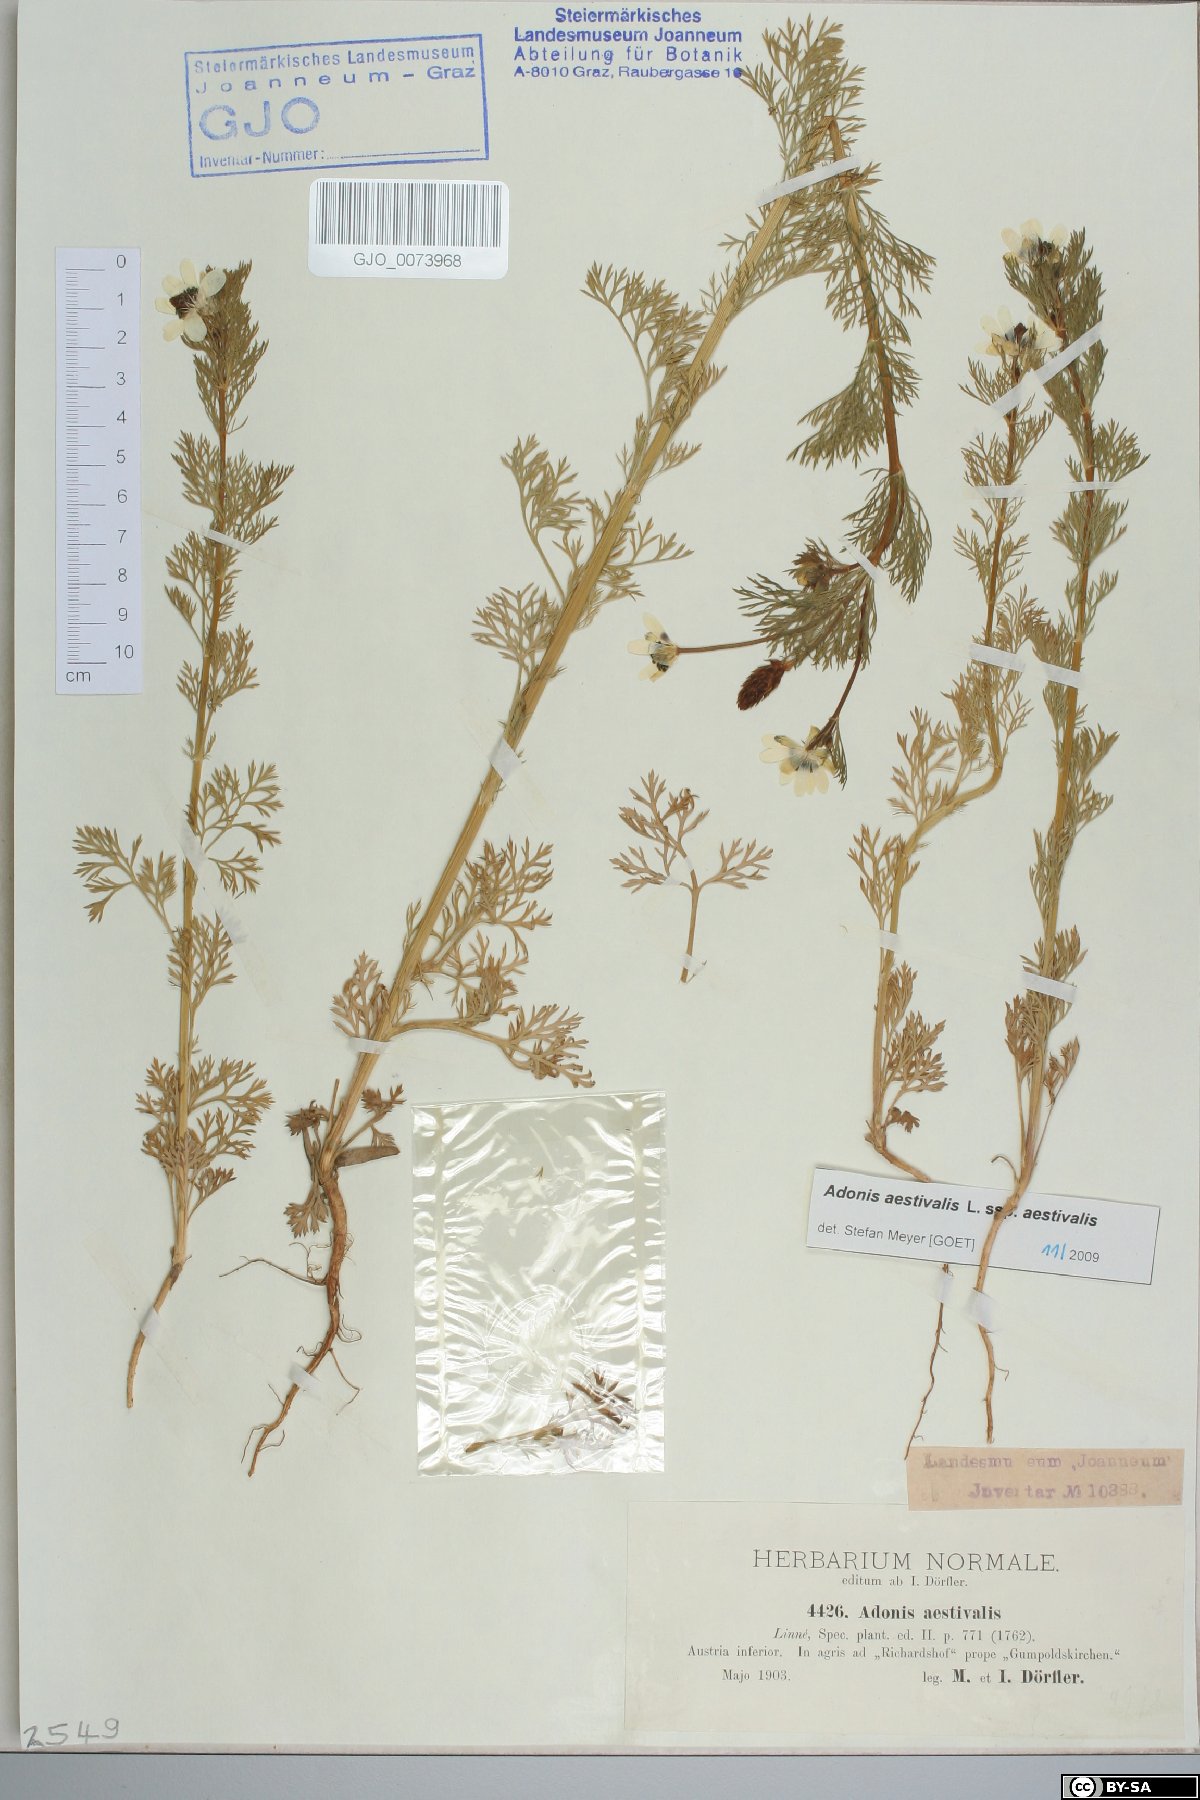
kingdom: Plantae
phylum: Tracheophyta
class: Magnoliopsida
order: Ranunculales
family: Ranunculaceae
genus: Adonis
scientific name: Adonis aestivalis
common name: Summer pheasant's-eye
